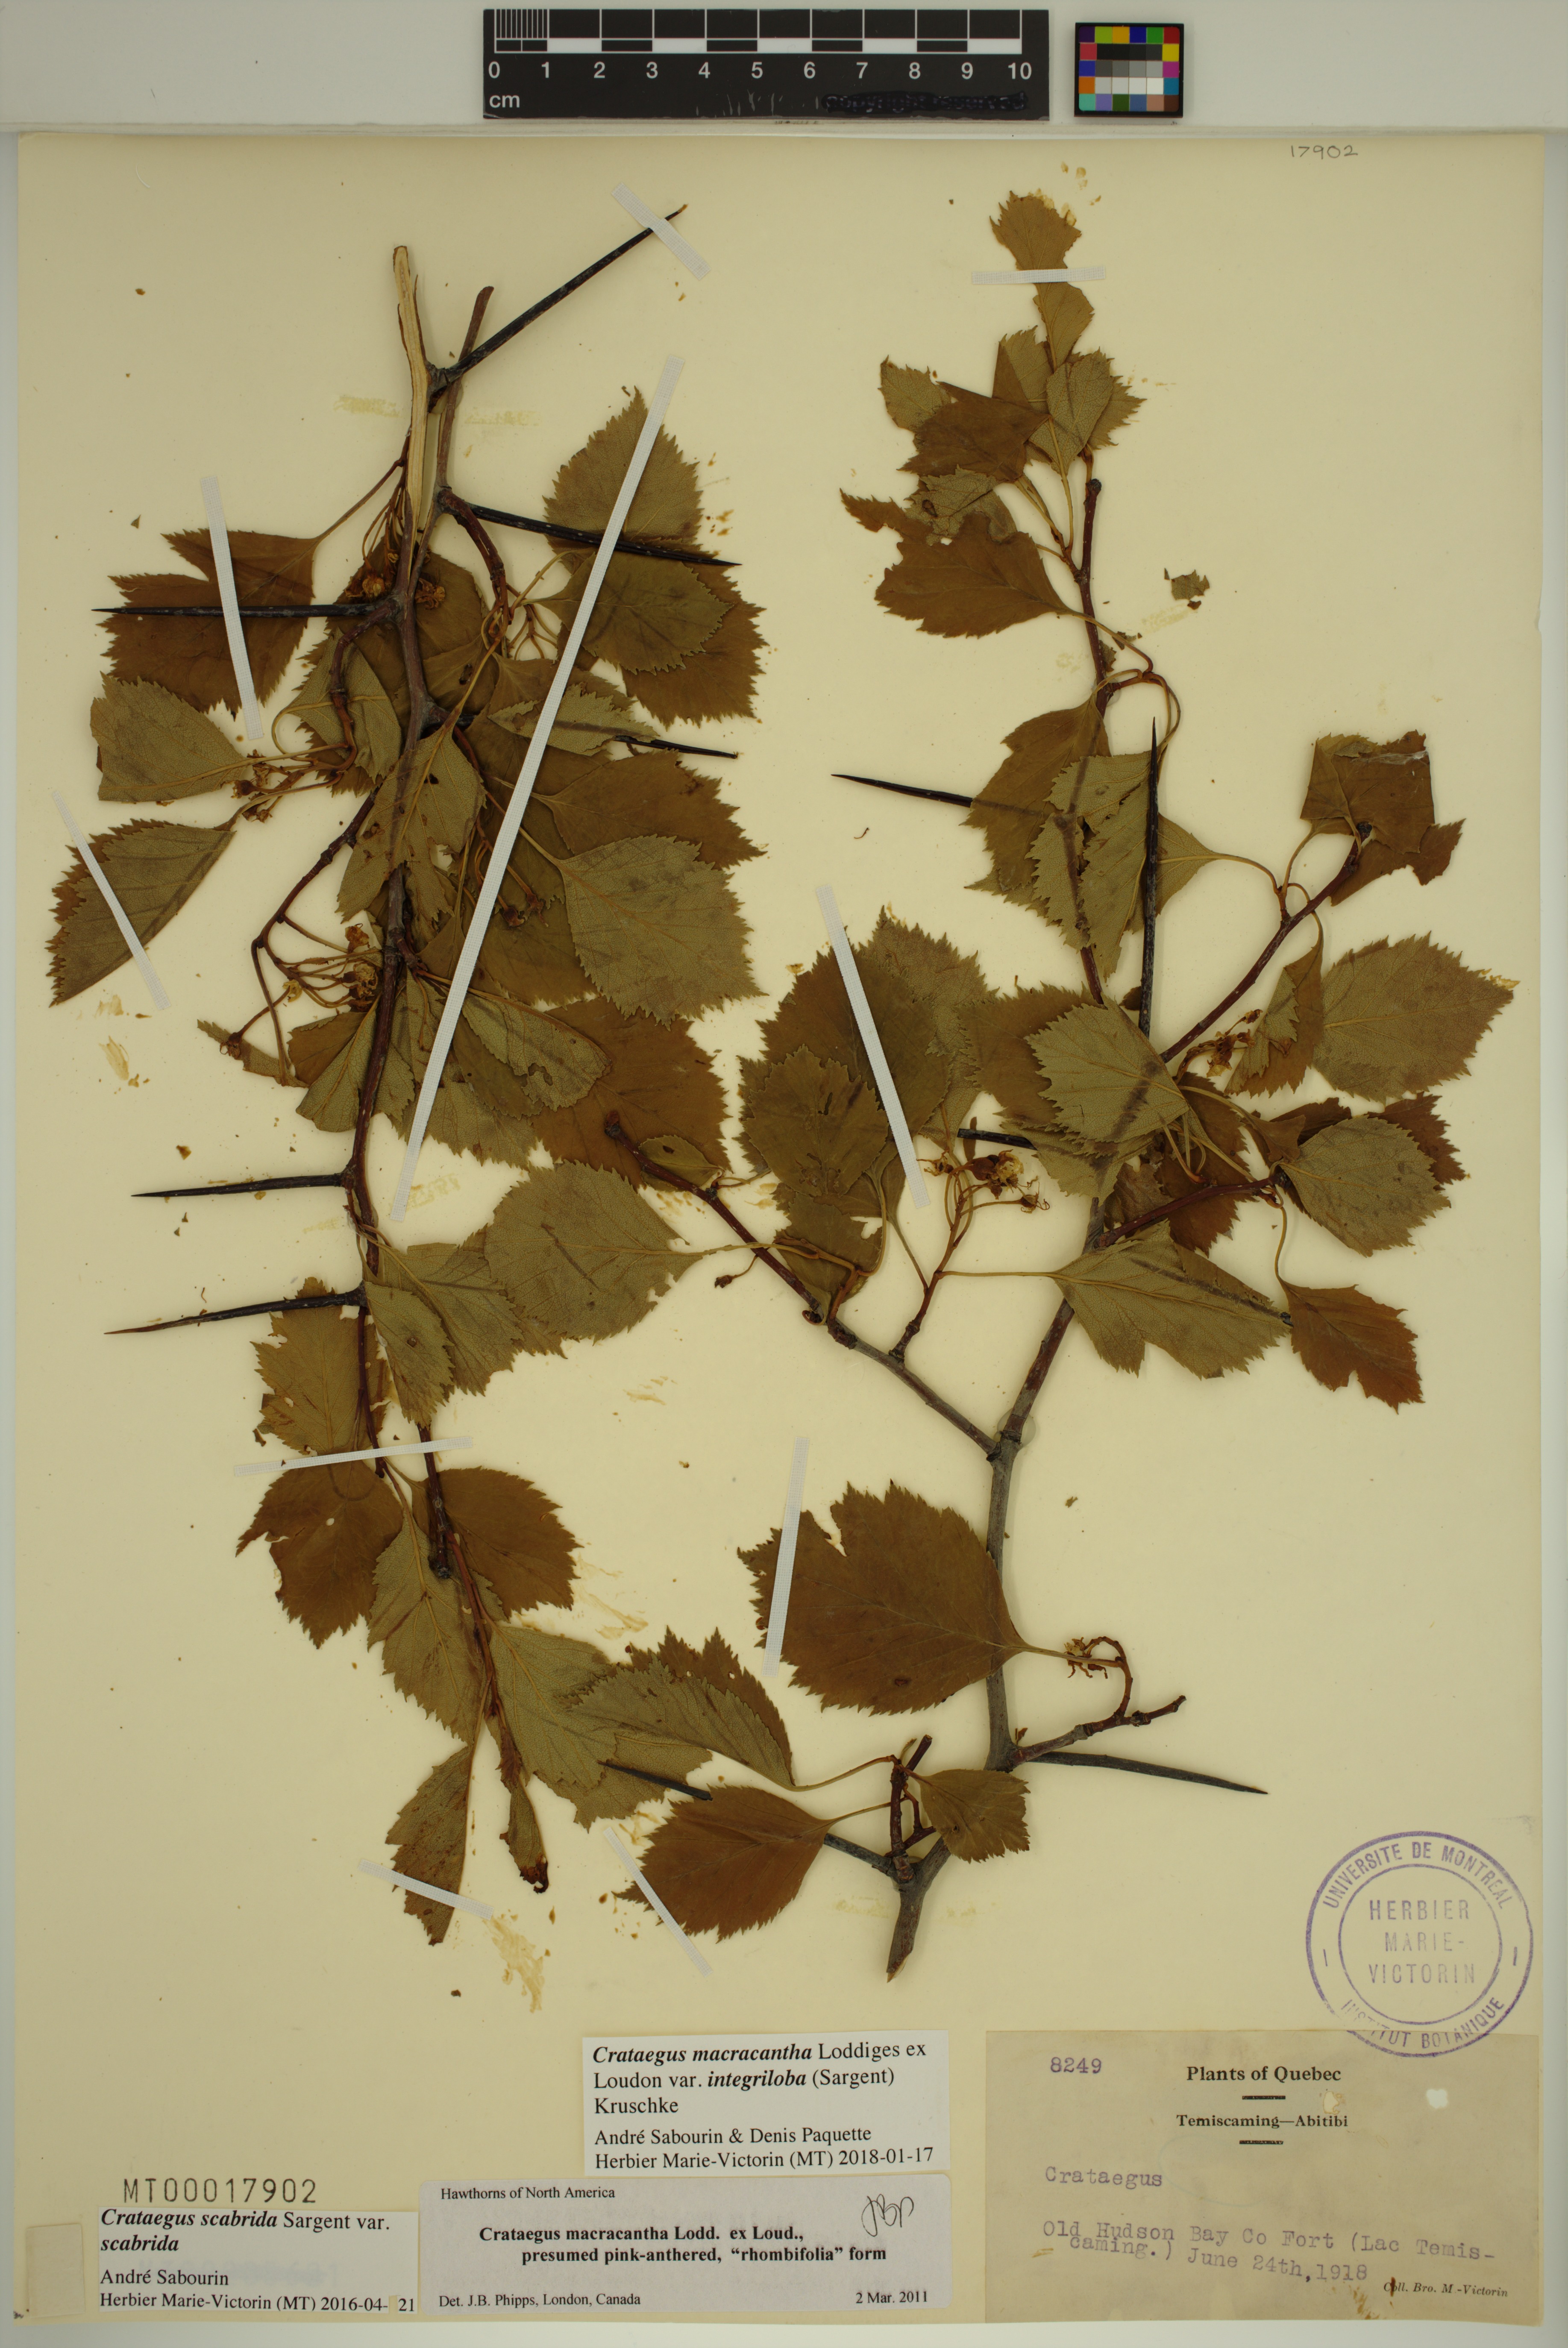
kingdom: Plantae
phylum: Tracheophyta
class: Magnoliopsida
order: Rosales
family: Rosaceae
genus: Crataegus
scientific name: Crataegus succulenta
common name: Fleshy hawthorn
